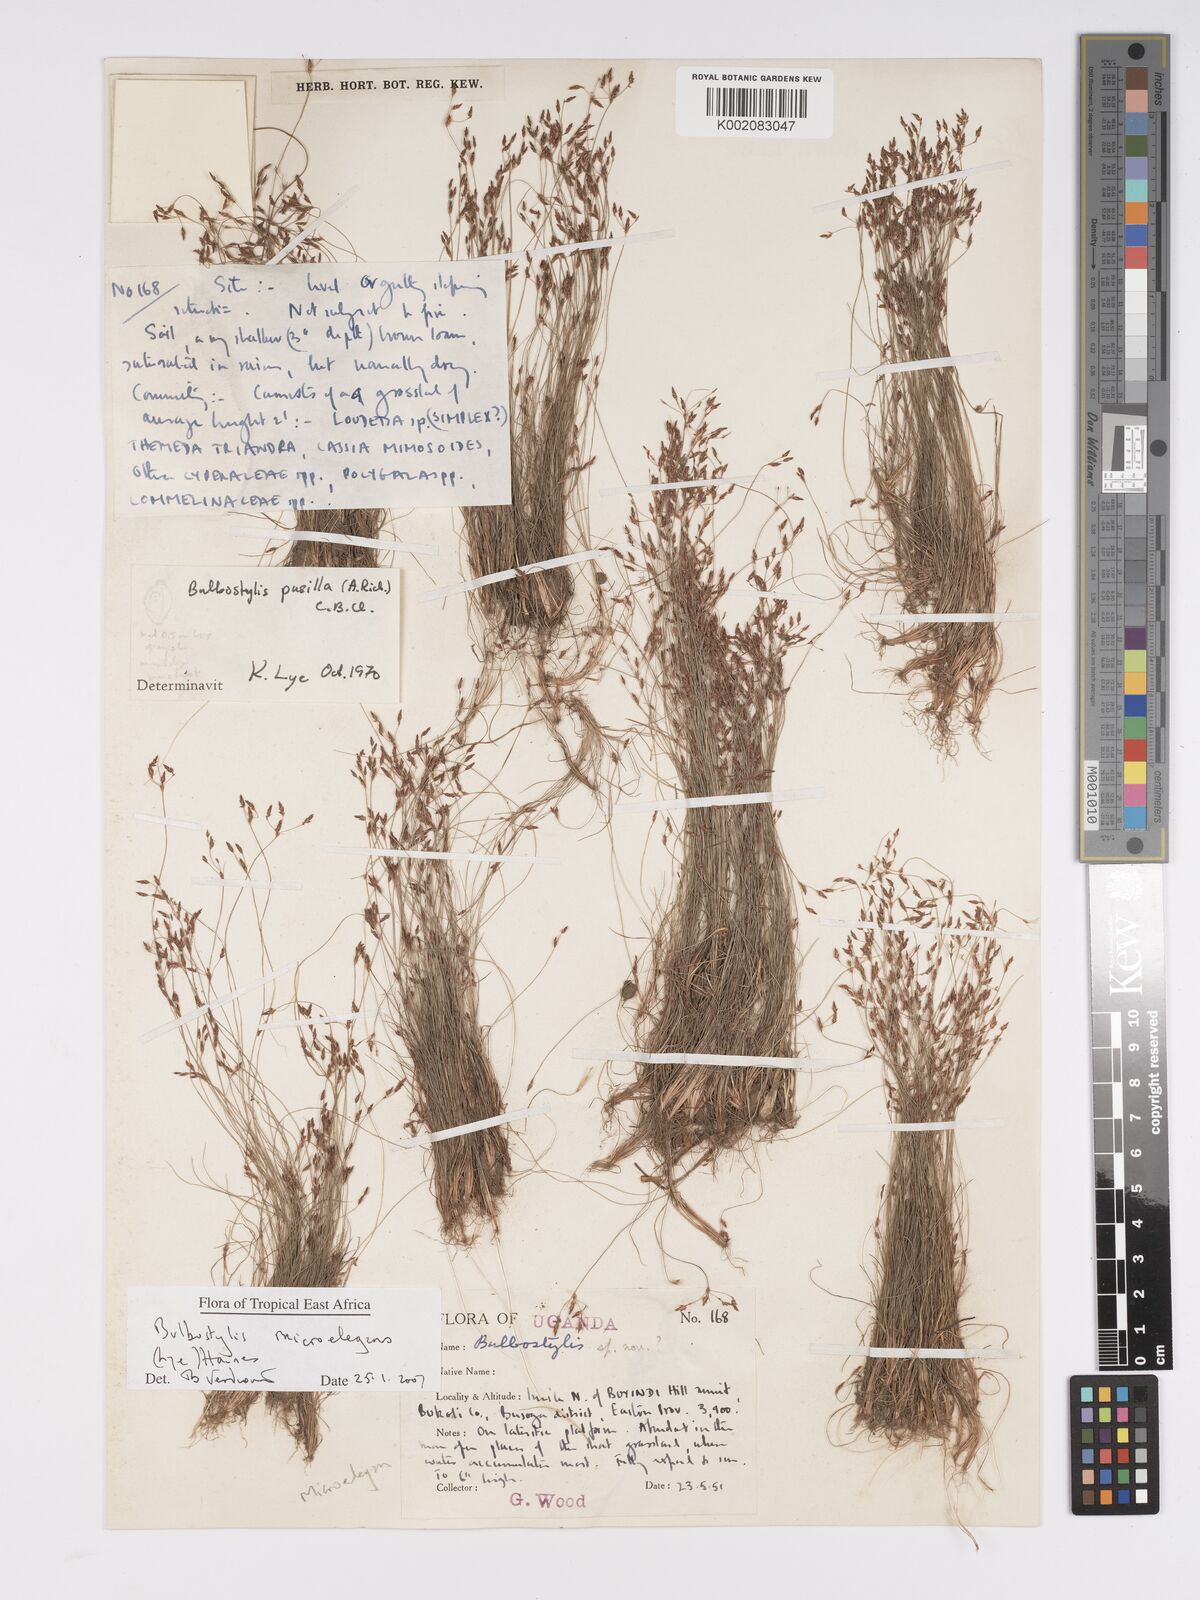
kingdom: Plantae
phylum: Tracheophyta
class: Liliopsida
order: Poales
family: Cyperaceae
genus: Bulbostylis
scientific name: Bulbostylis microelegans
